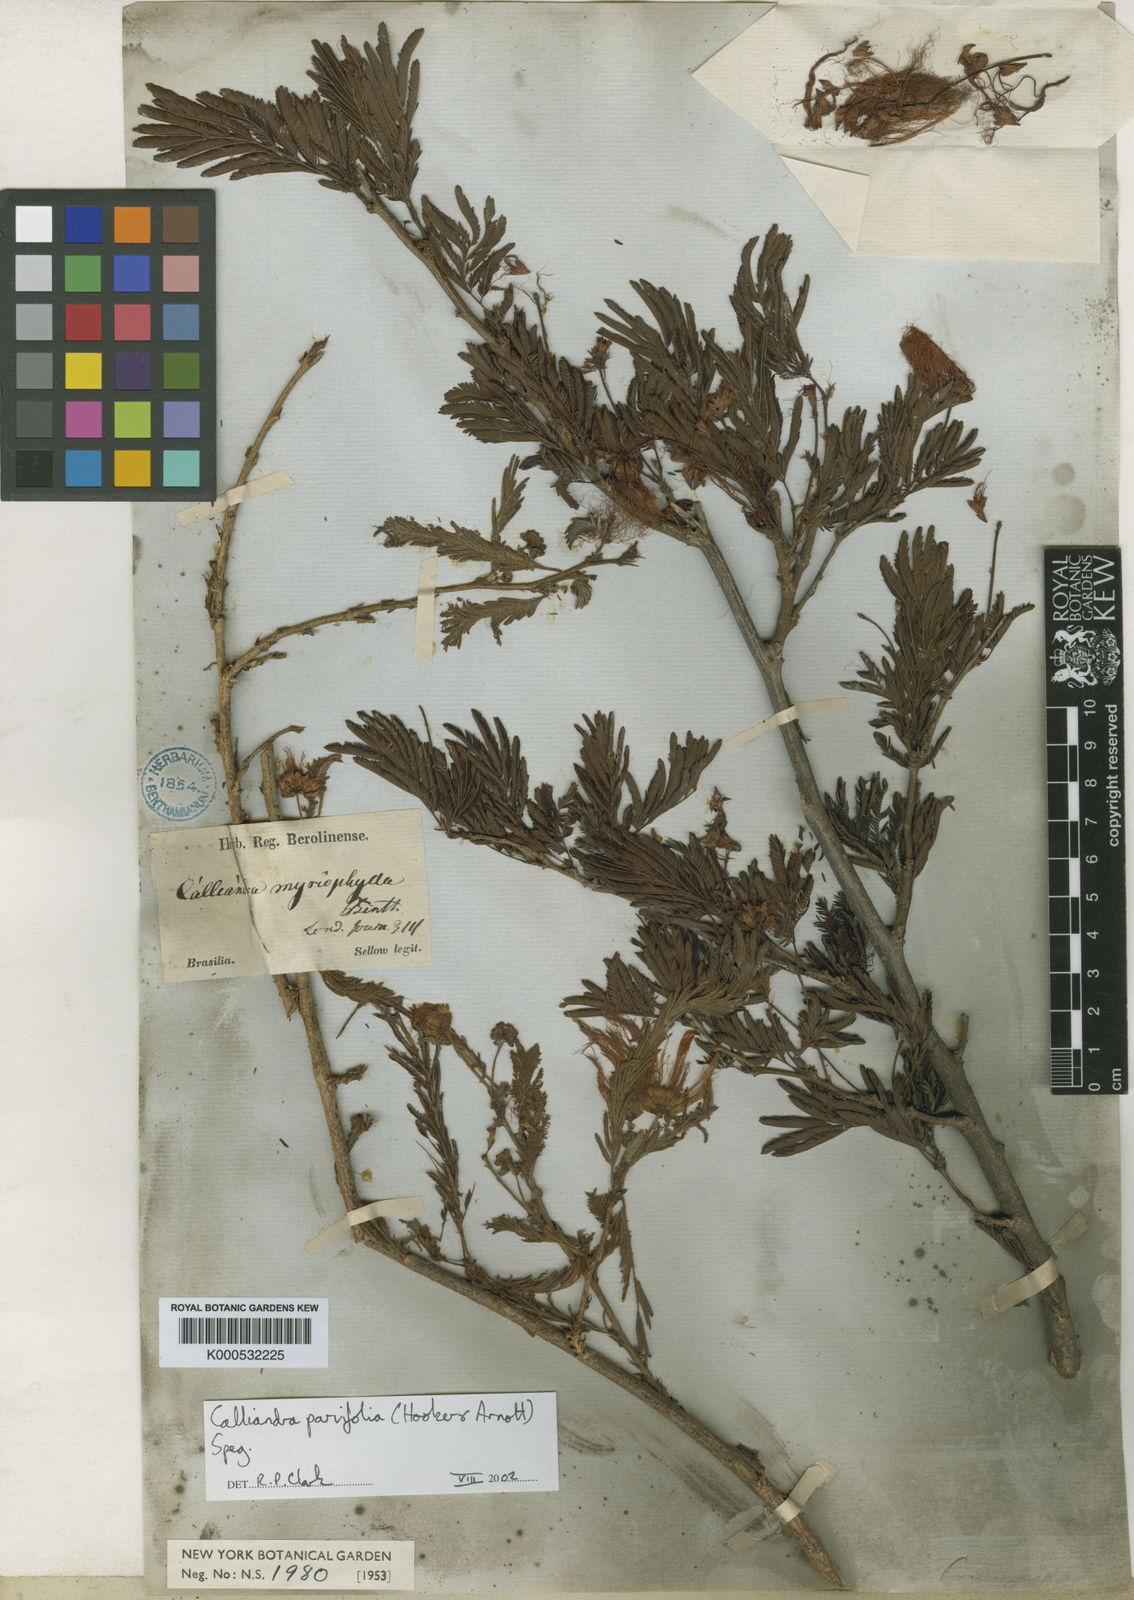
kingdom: Plantae
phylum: Tracheophyta
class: Magnoliopsida
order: Fabales
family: Fabaceae
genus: Calliandra
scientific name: Calliandra parvifolia
